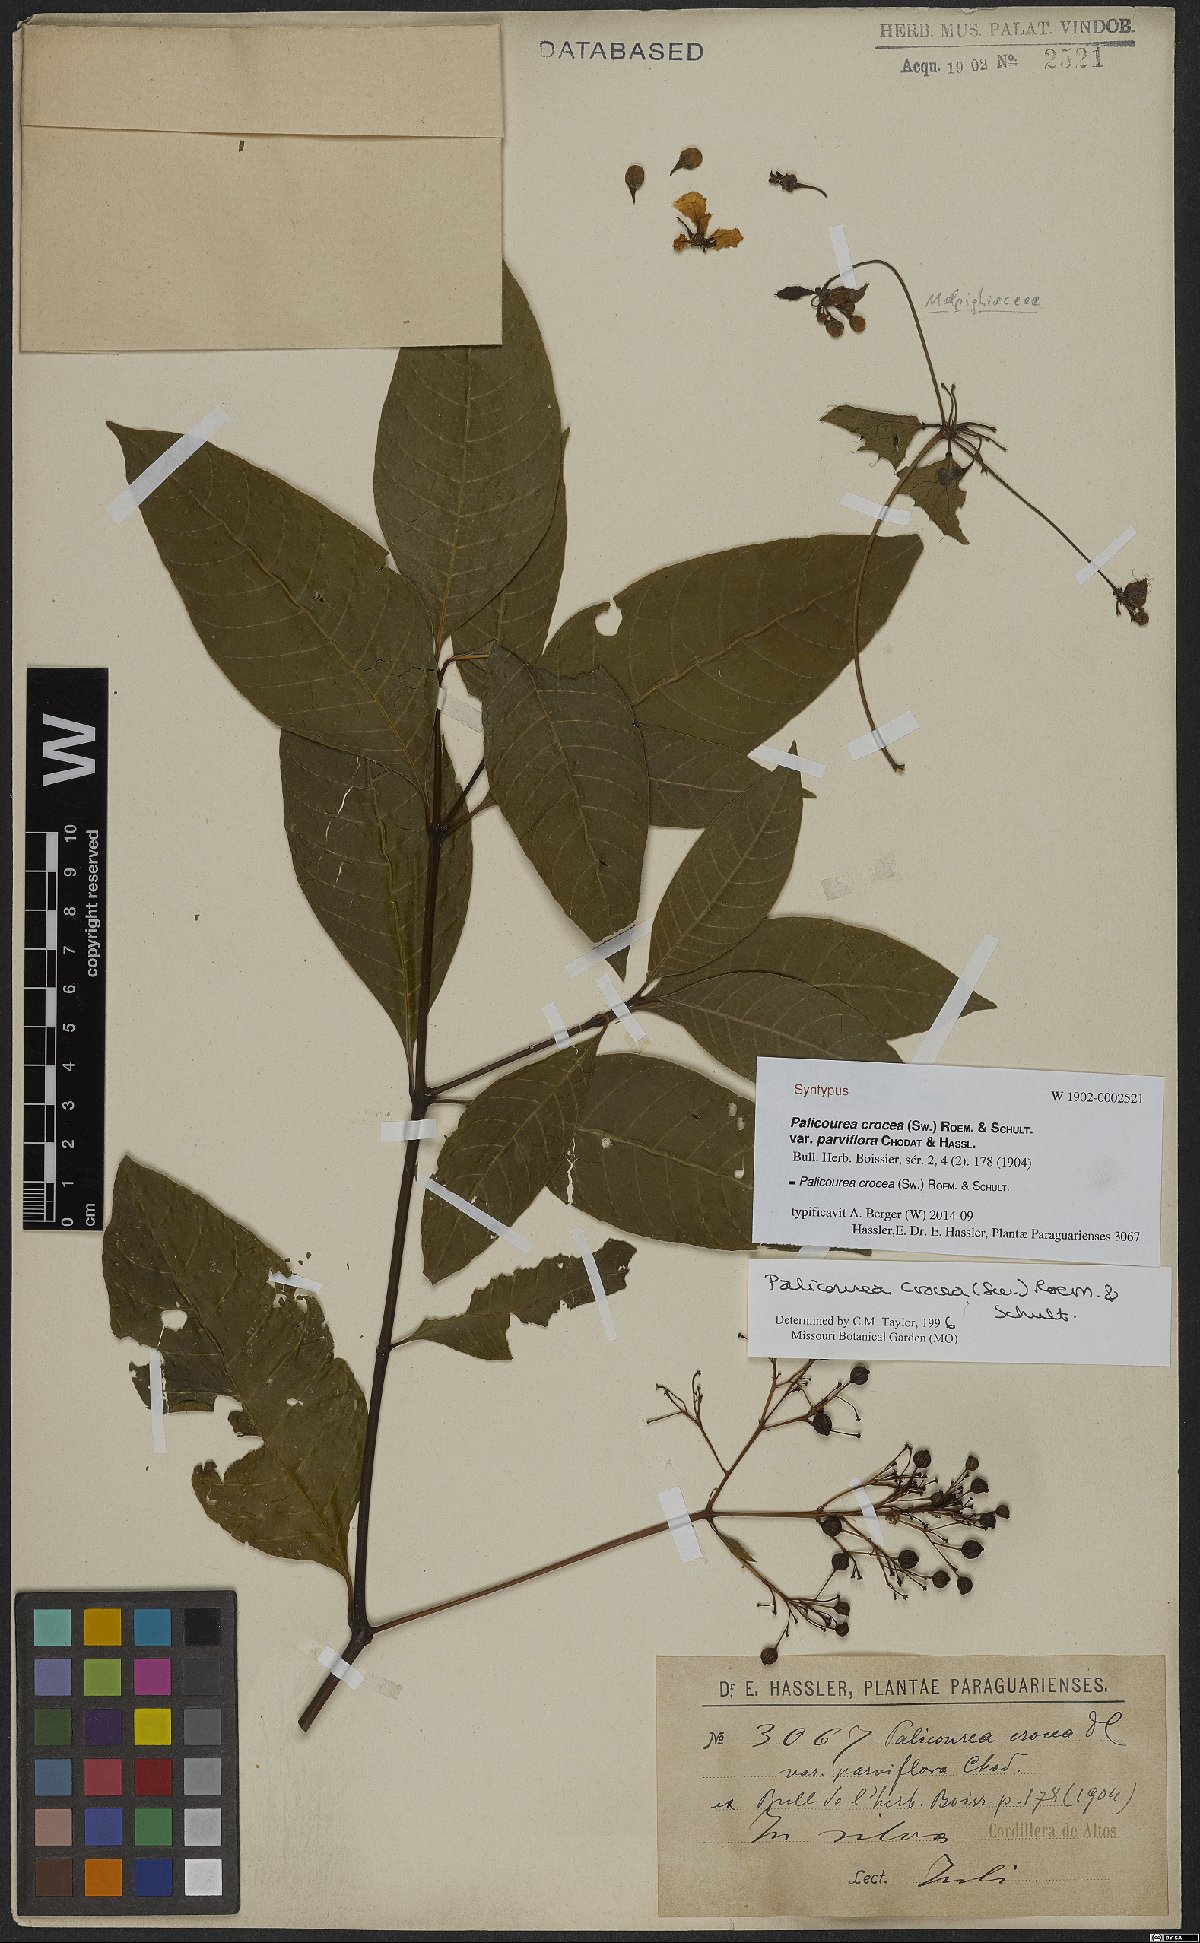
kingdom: Plantae
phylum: Tracheophyta
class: Magnoliopsida
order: Gentianales
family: Rubiaceae
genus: Palicourea
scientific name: Palicourea crocea
